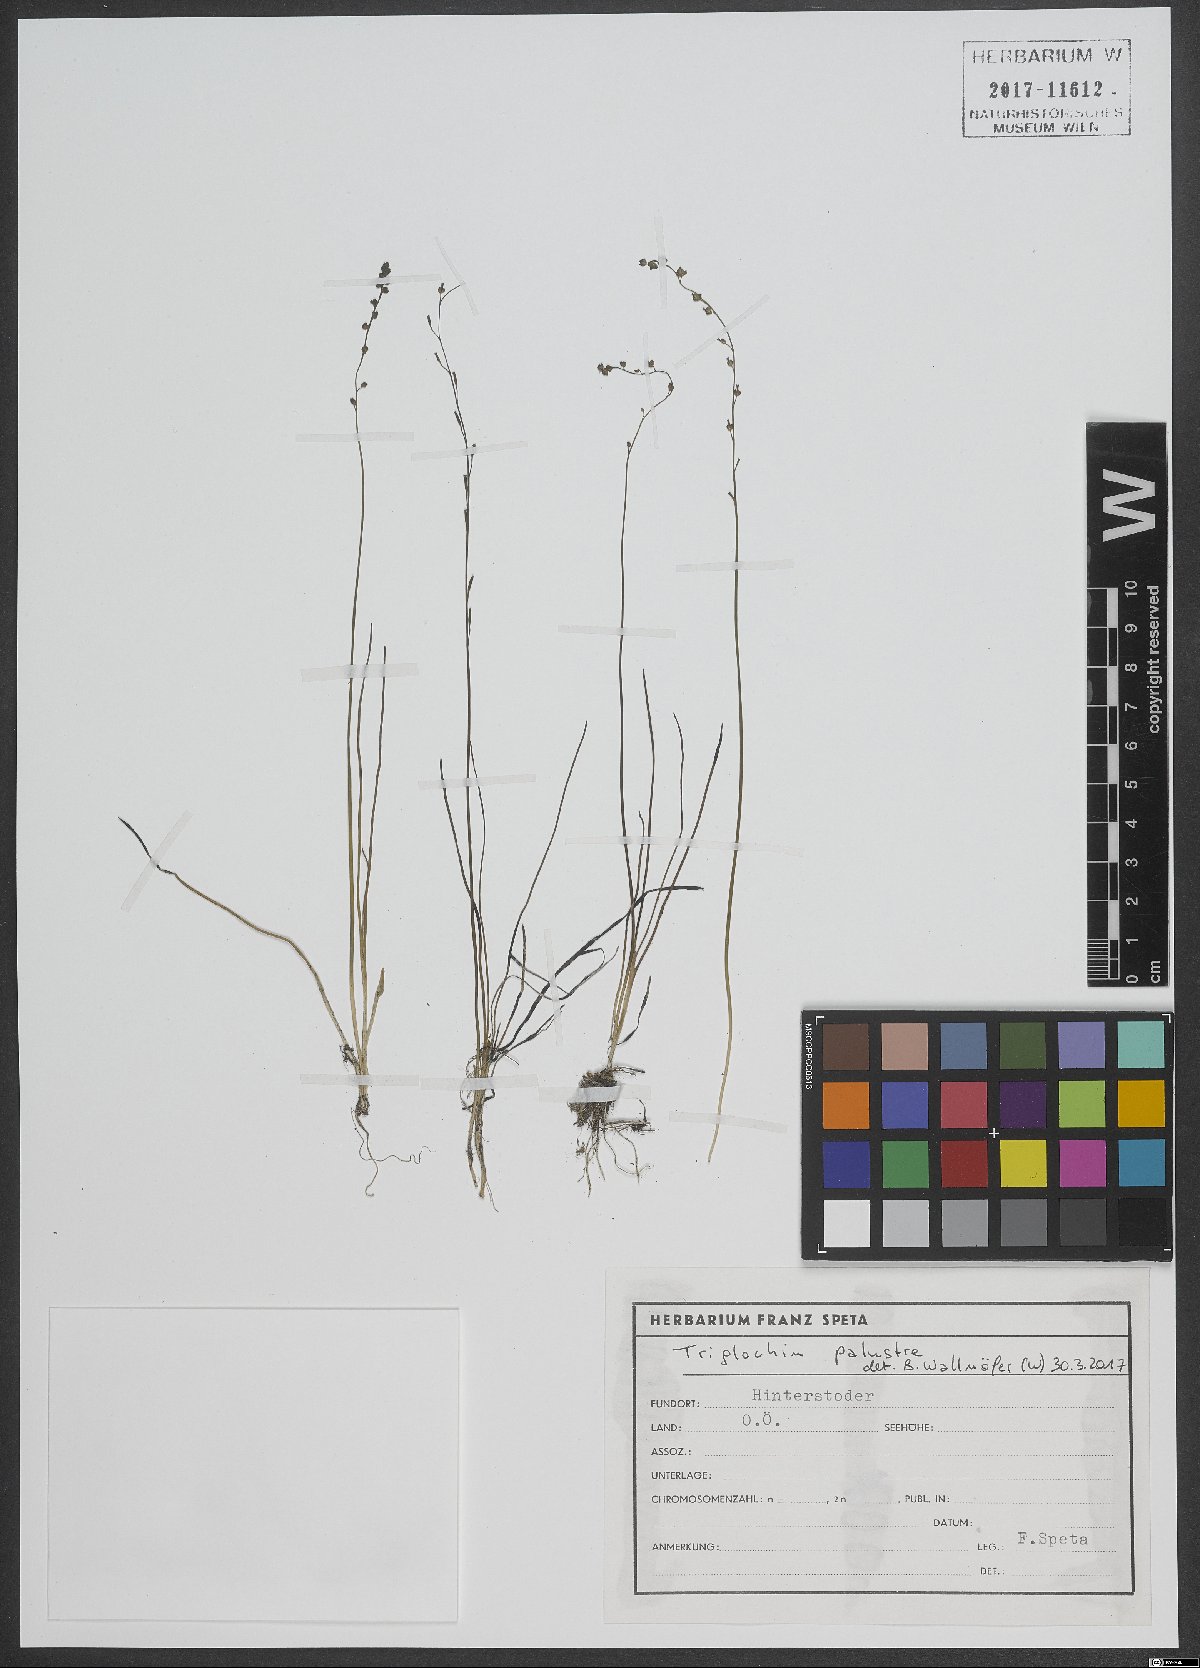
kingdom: Plantae
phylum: Tracheophyta
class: Liliopsida
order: Alismatales
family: Juncaginaceae
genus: Triglochin
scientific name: Triglochin palustris
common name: Marsh arrowgrass
